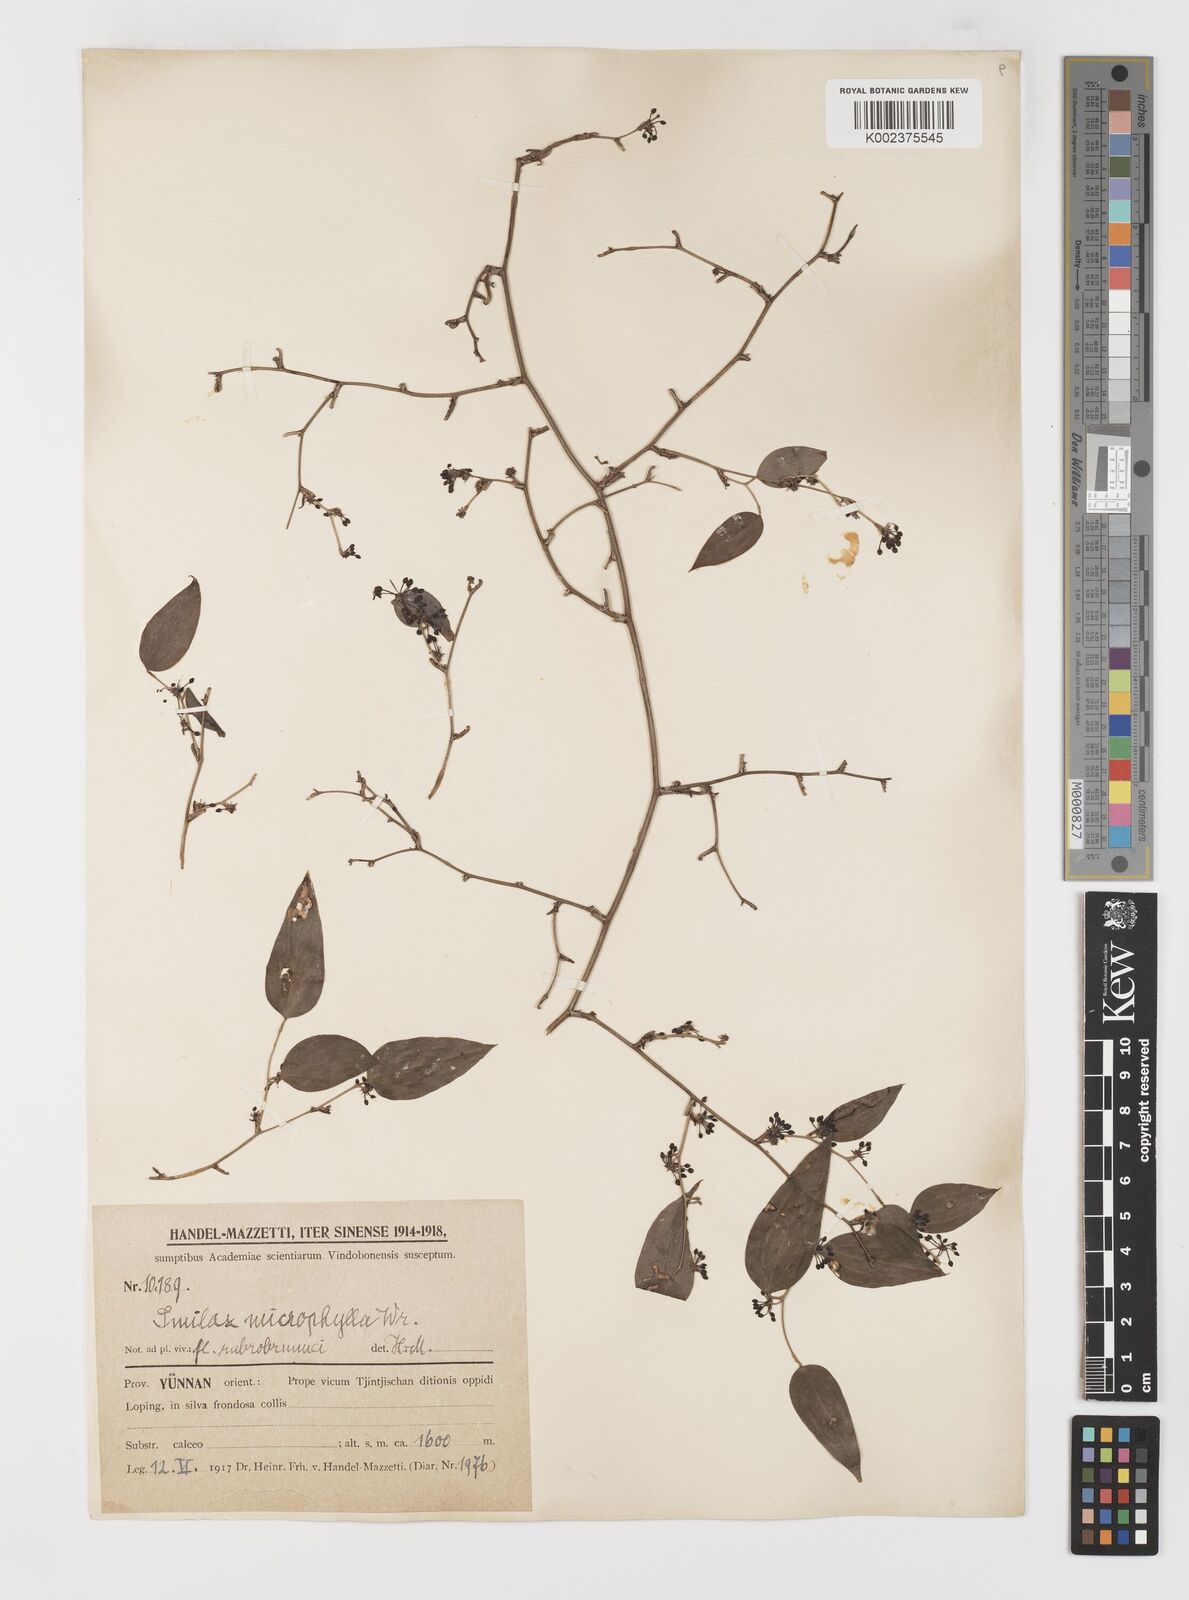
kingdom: Plantae
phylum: Tracheophyta
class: Liliopsida
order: Liliales
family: Smilacaceae
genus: Smilax
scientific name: Smilax lanceifolia
